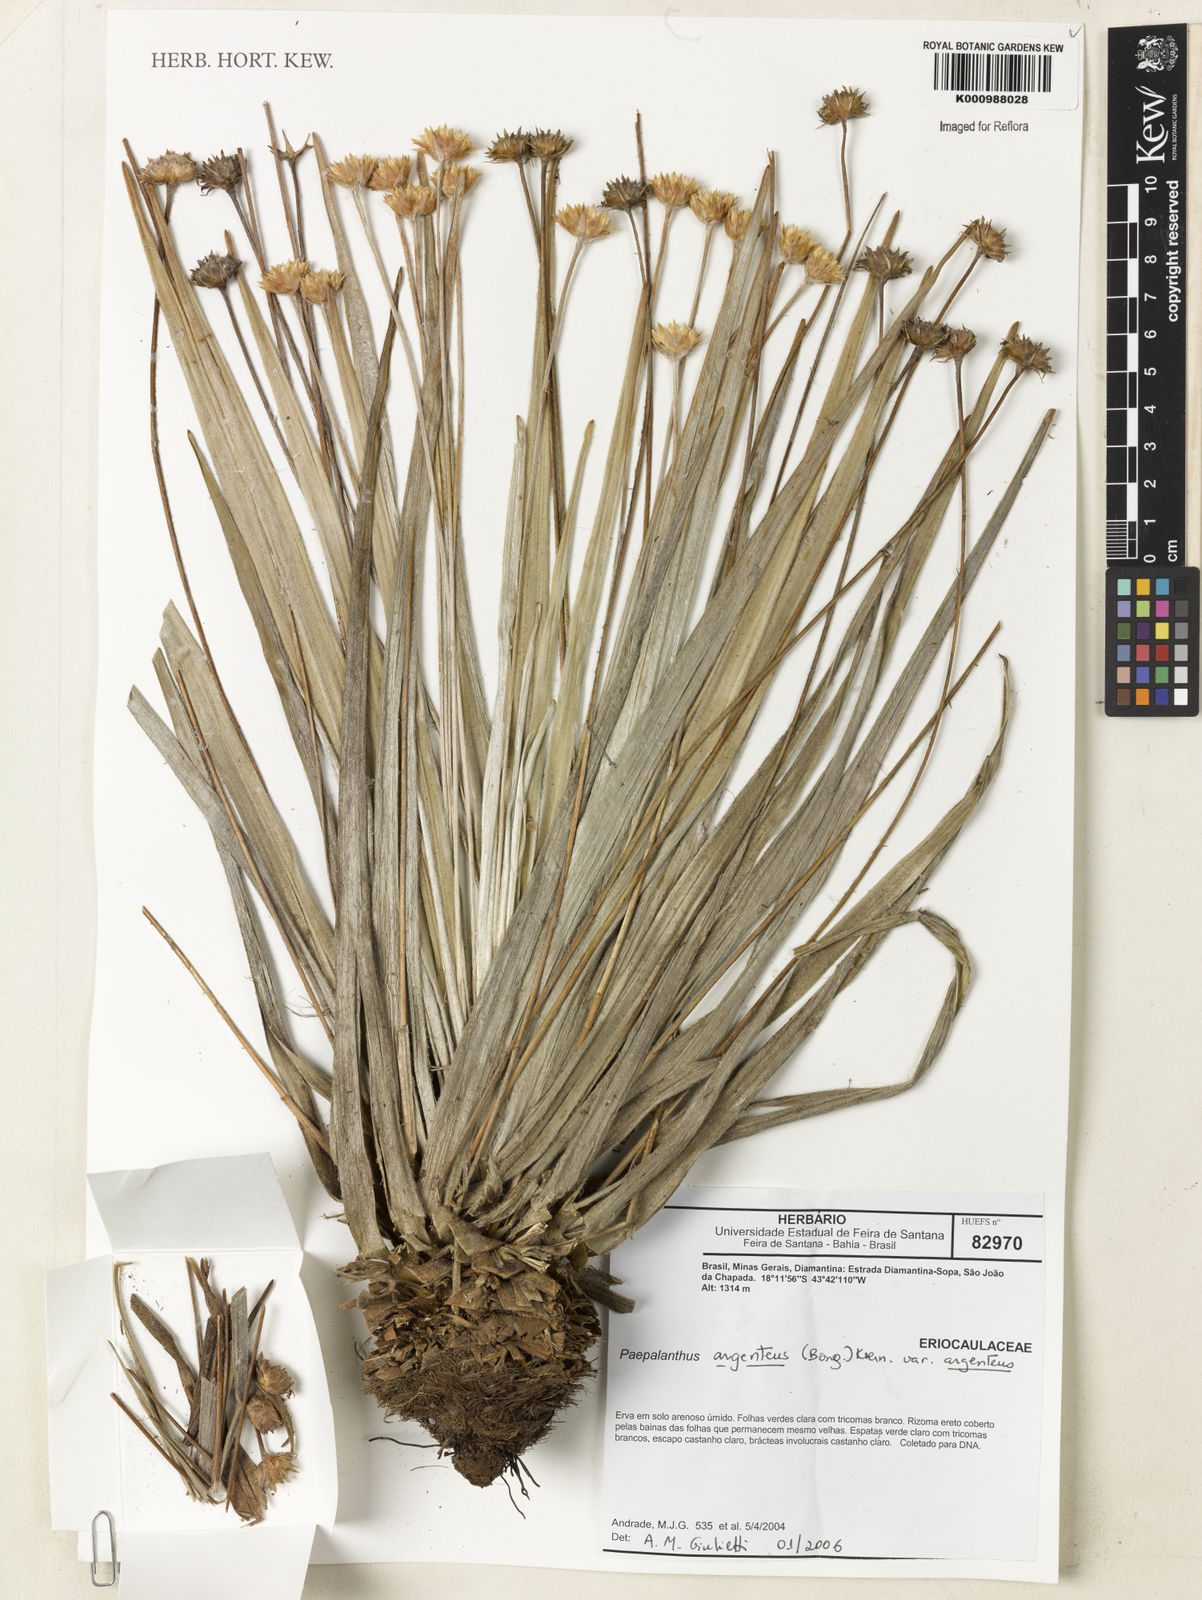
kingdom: Plantae
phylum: Tracheophyta
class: Liliopsida
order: Poales
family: Eriocaulaceae
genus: Paepalanthus
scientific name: Paepalanthus
